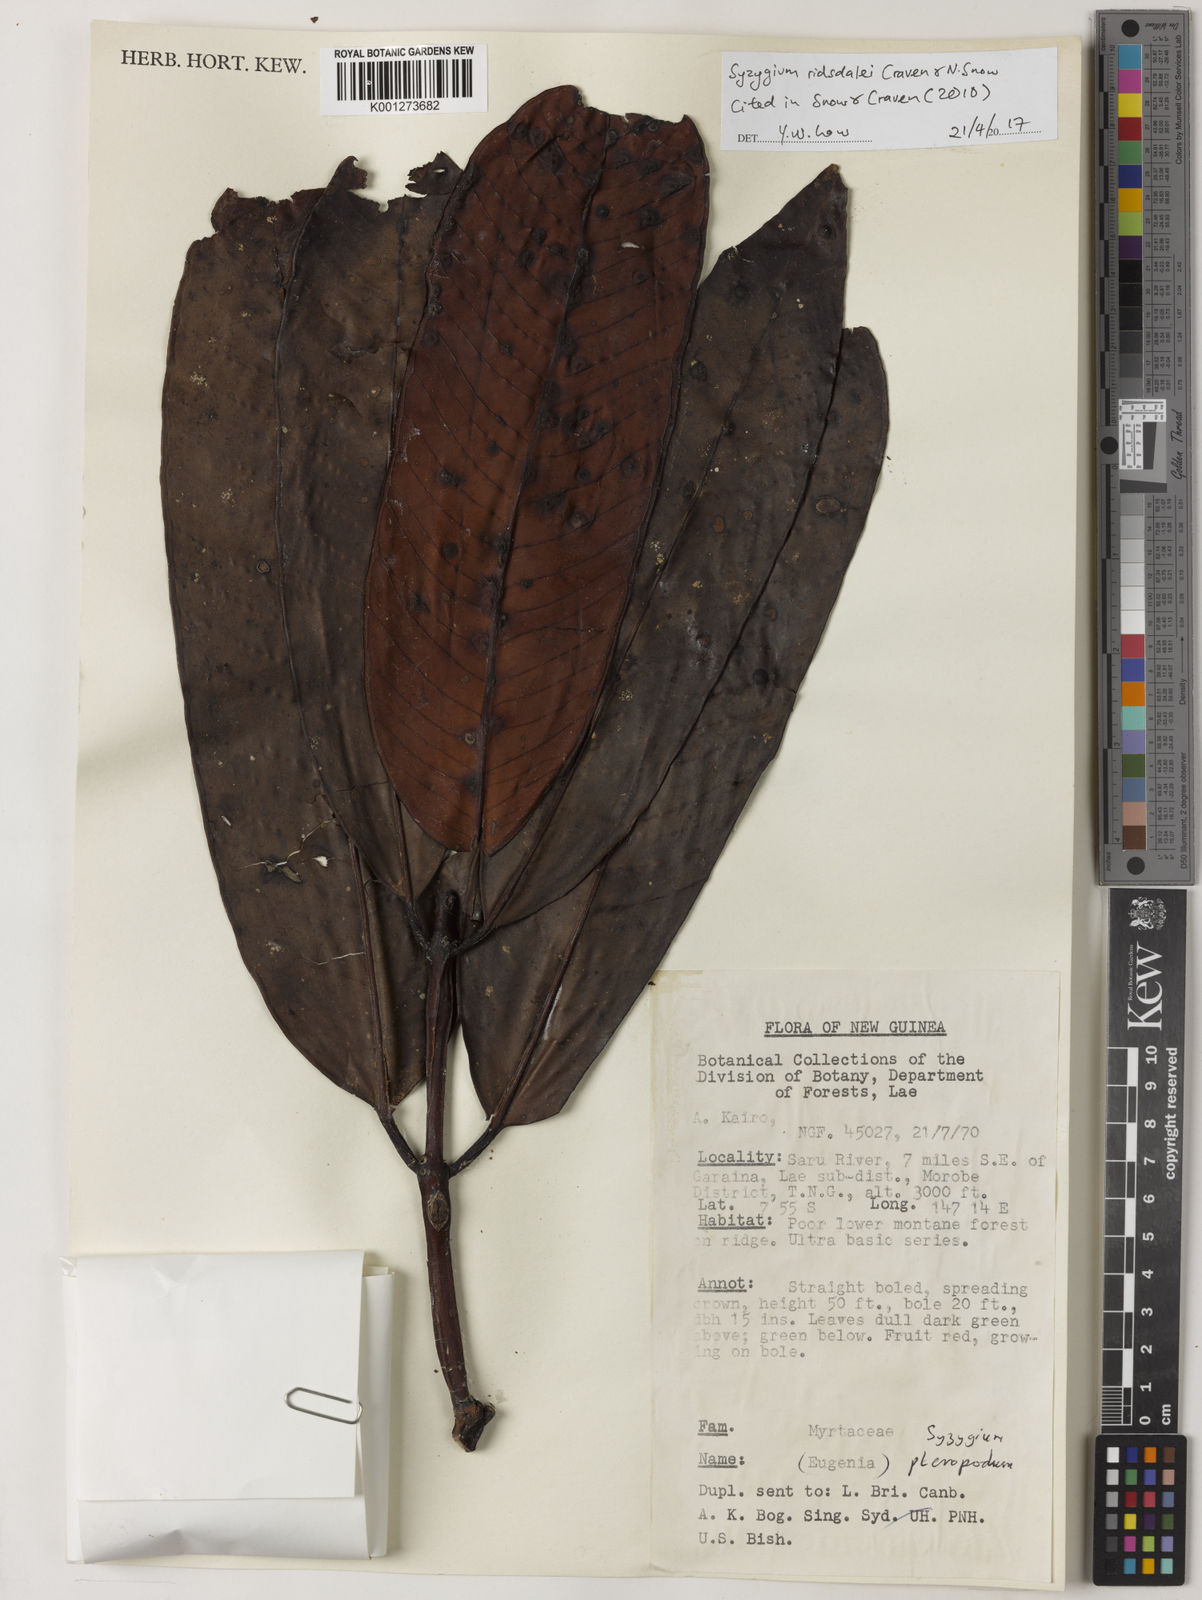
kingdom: Plantae
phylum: Tracheophyta
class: Magnoliopsida
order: Myrtales
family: Myrtaceae
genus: Syzygium
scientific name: Syzygium ridsdalei
